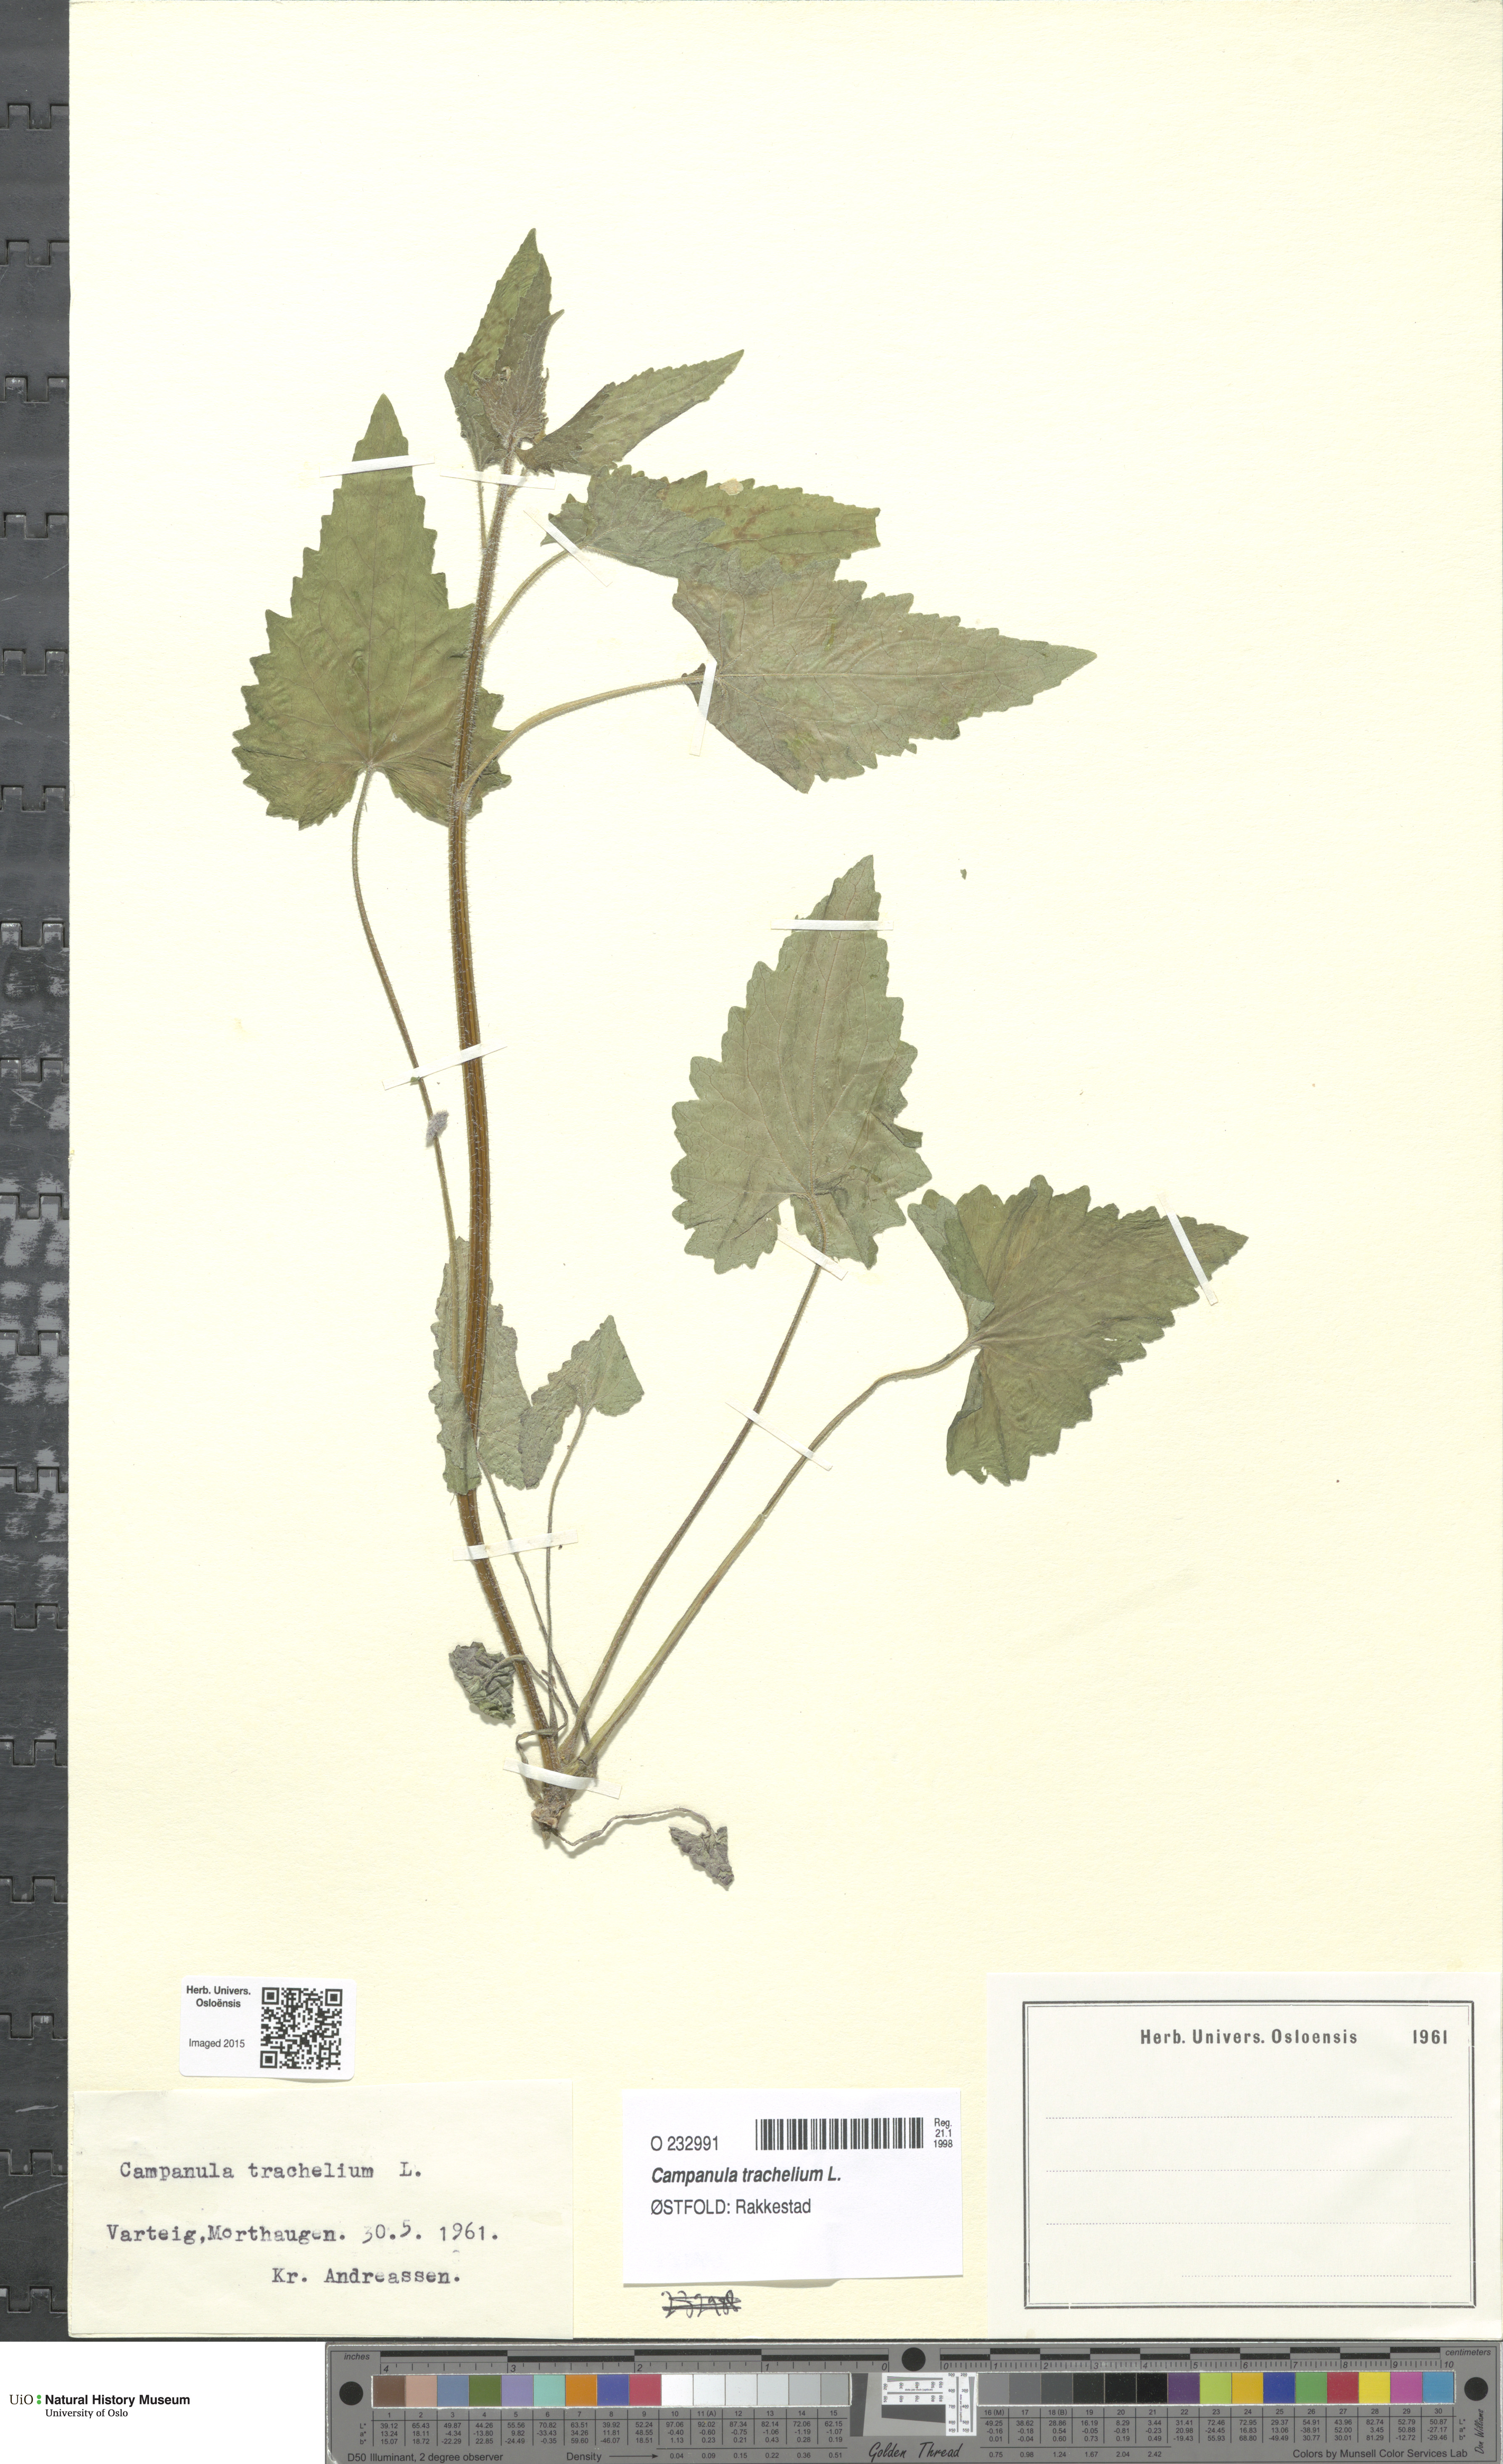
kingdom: Plantae
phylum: Tracheophyta
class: Magnoliopsida
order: Asterales
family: Campanulaceae
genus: Campanula
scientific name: Campanula trachelium
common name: Nettle-leaved bellflower
